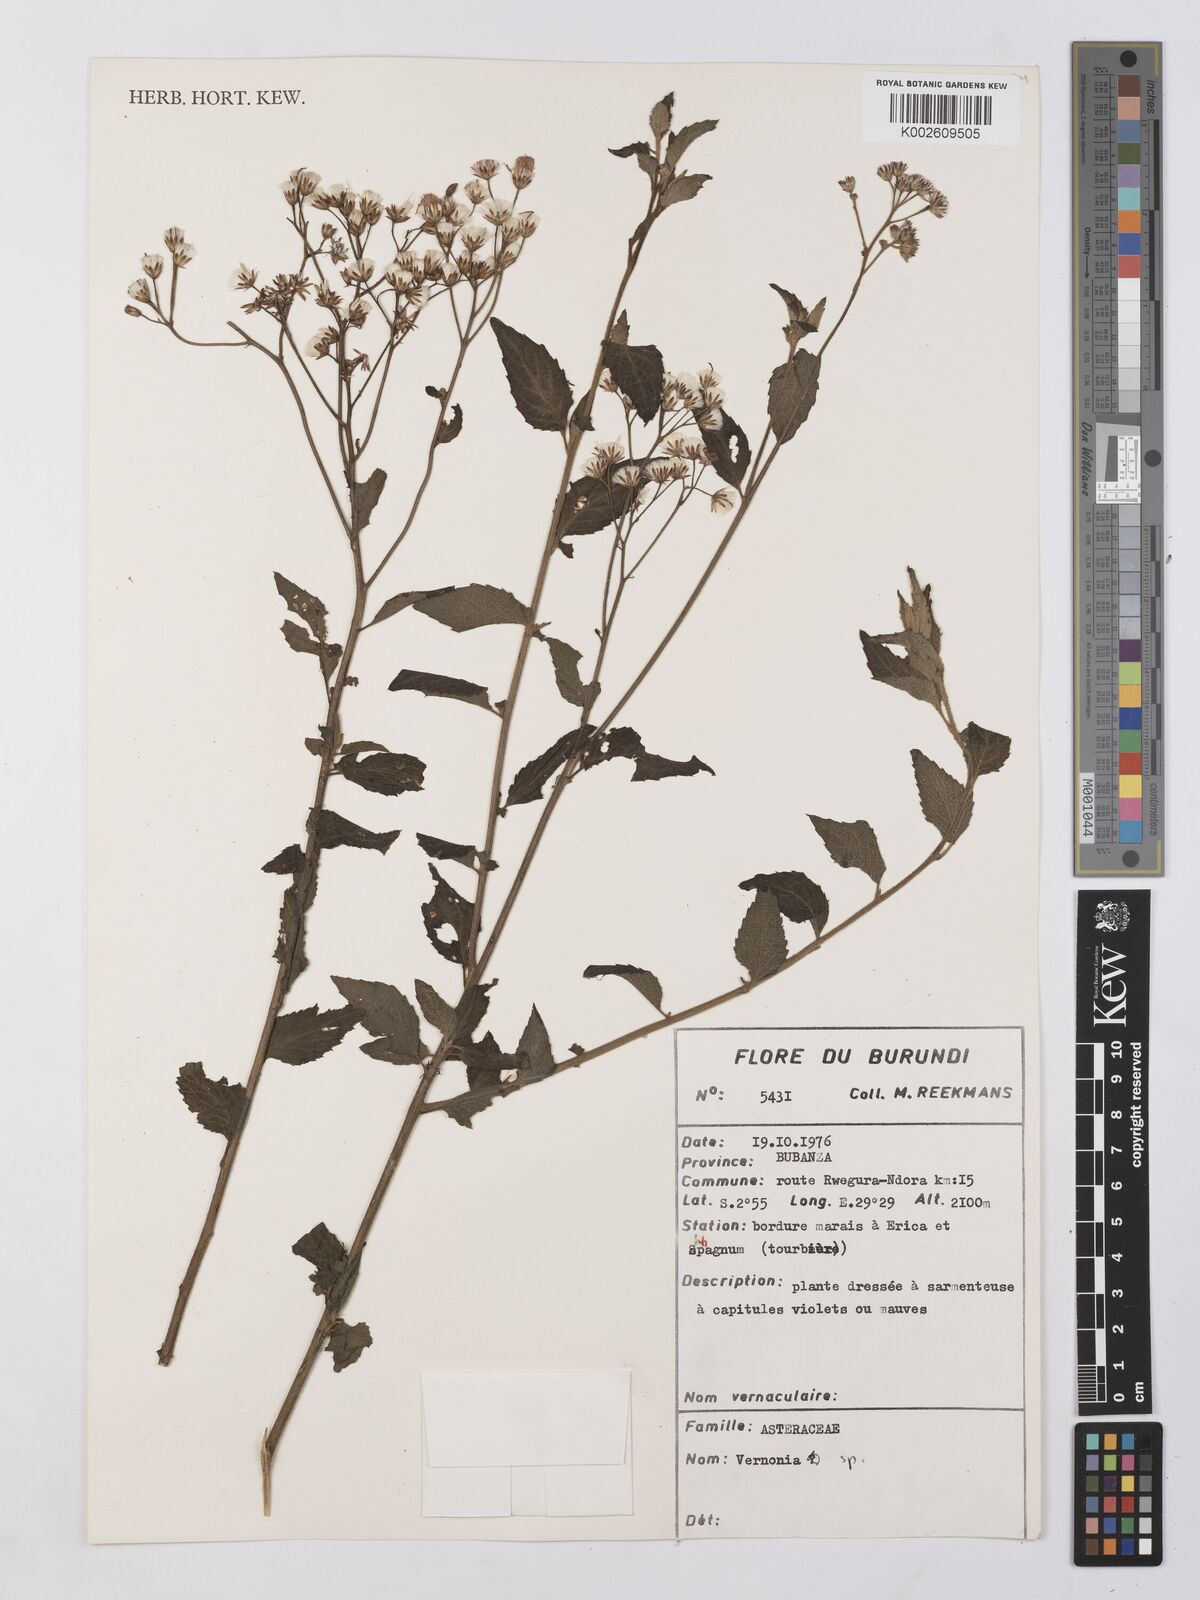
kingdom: Plantae
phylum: Tracheophyta
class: Magnoliopsida
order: Asterales
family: Asteraceae
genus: Vernonia
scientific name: Vernonia
